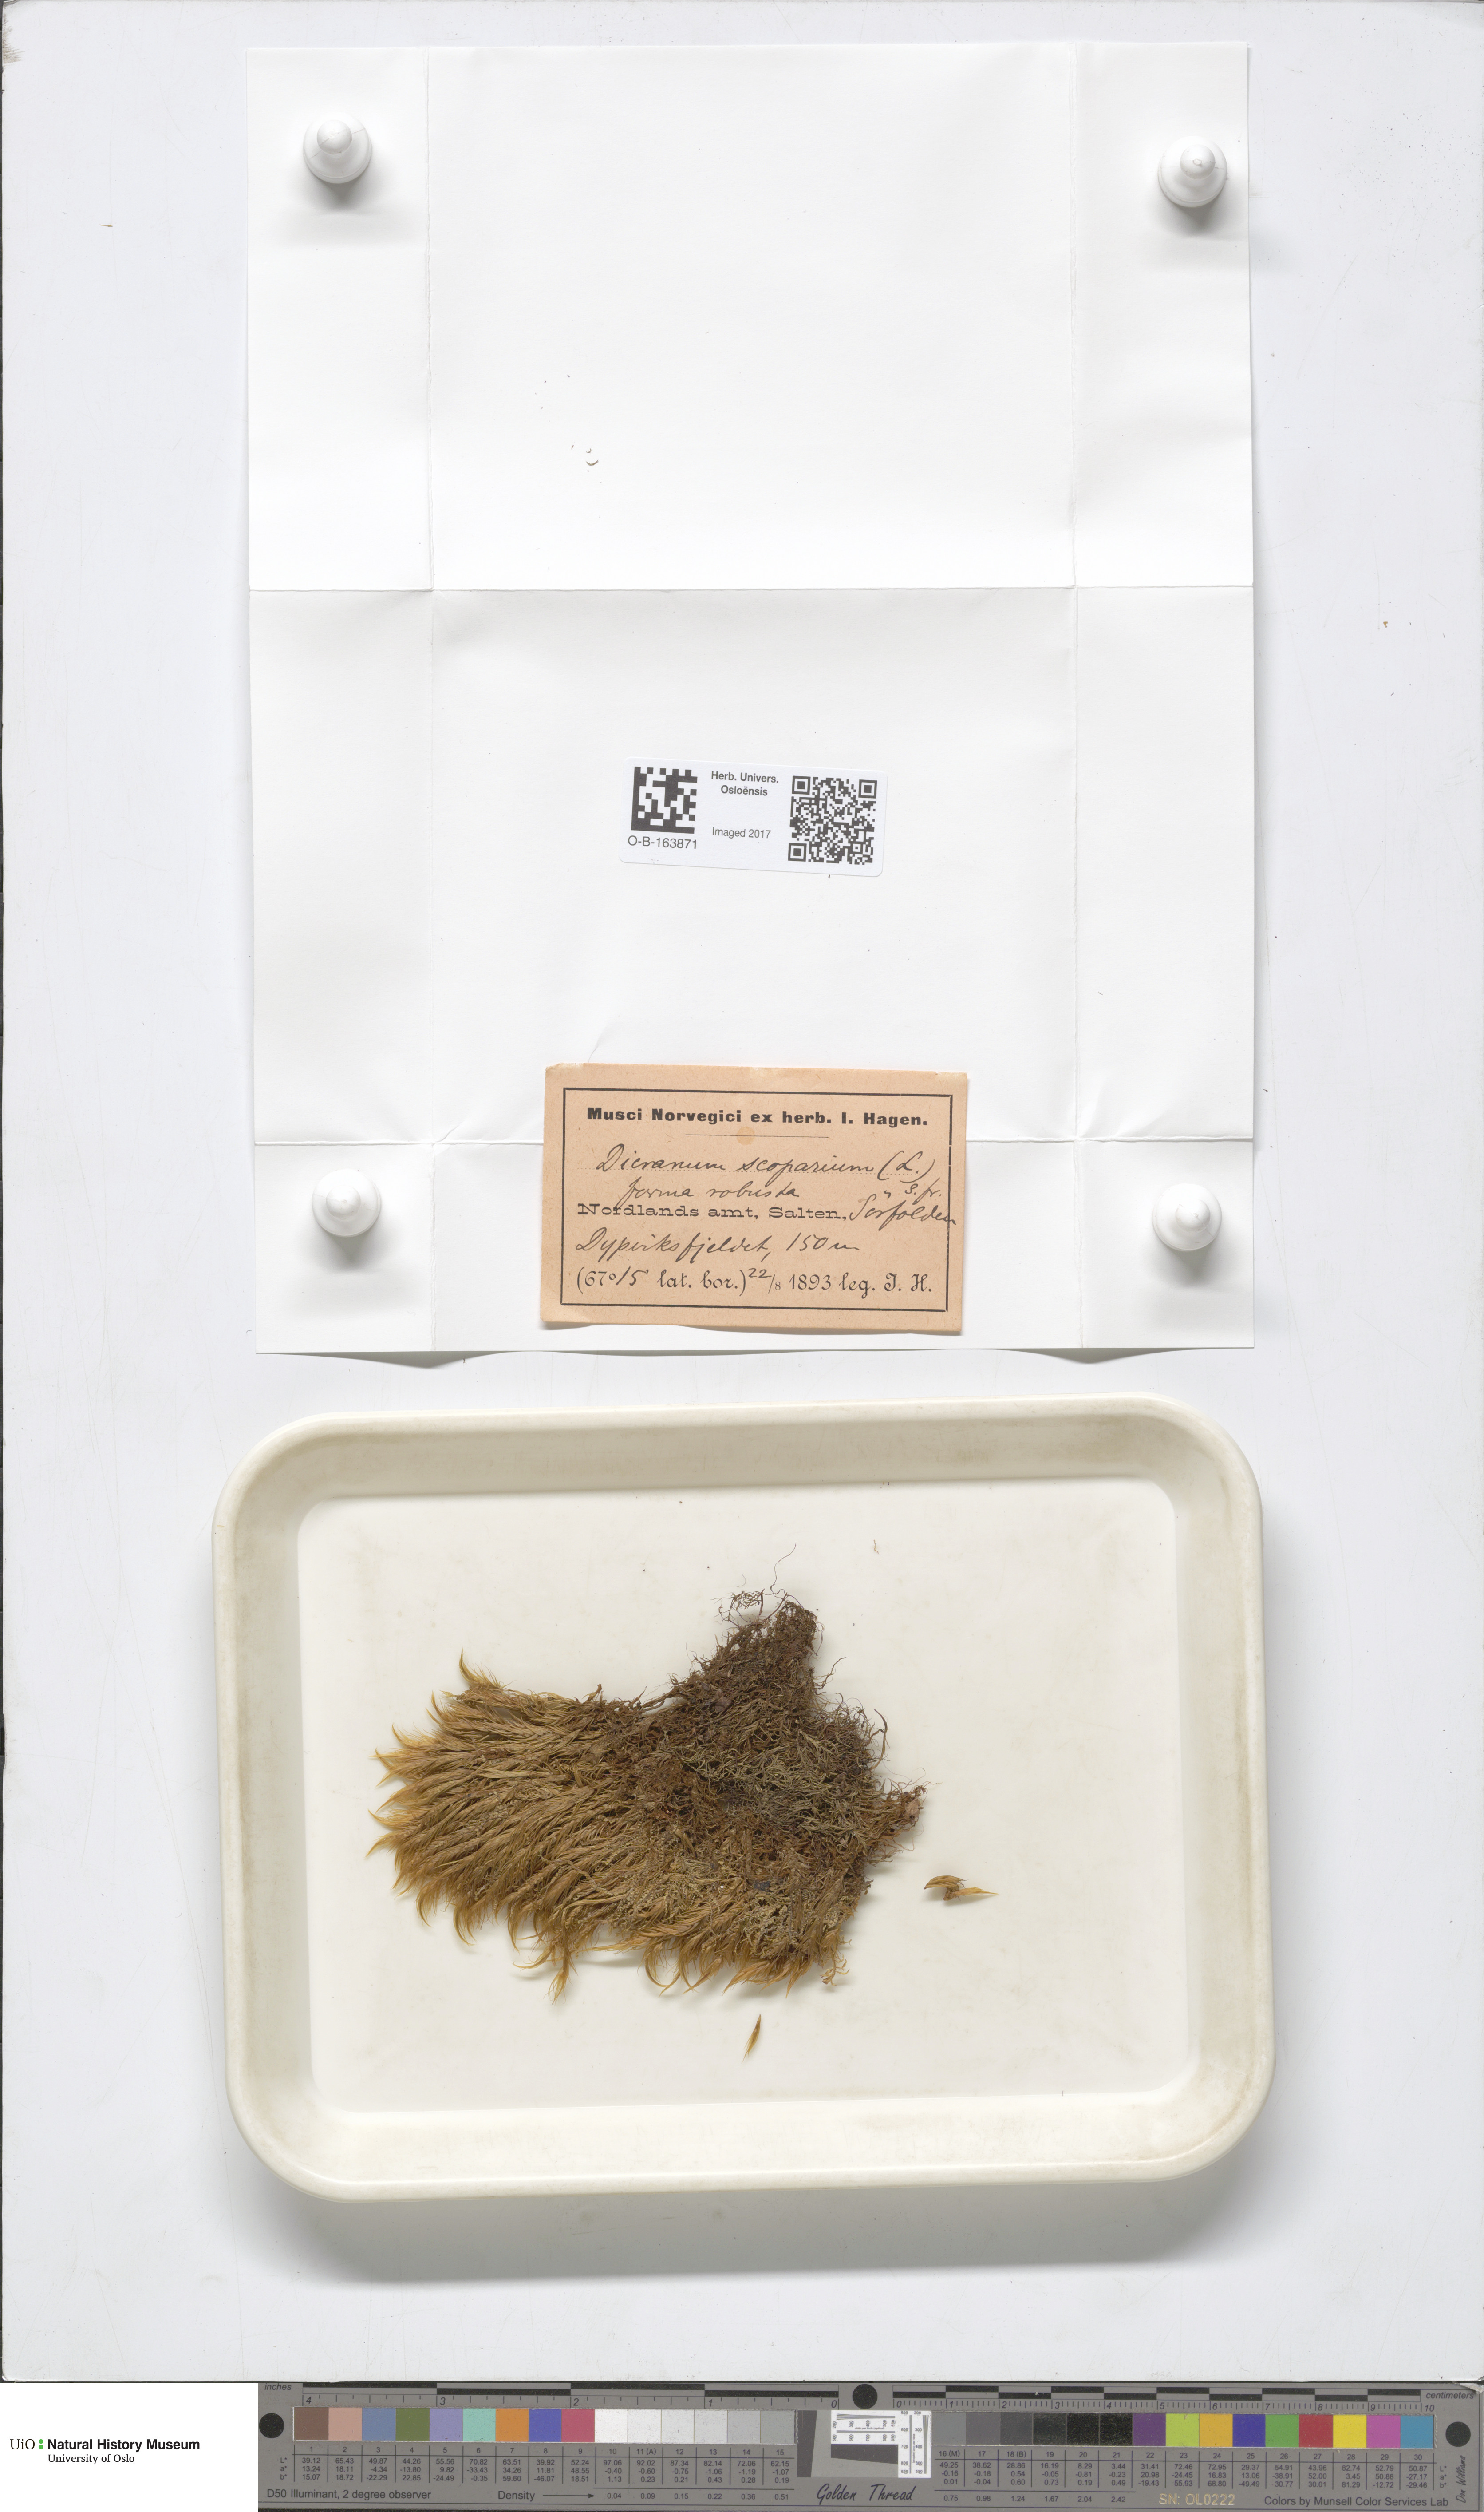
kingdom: Plantae
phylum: Bryophyta
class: Bryopsida
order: Dicranales
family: Dicranaceae
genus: Dicranum
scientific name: Dicranum scoparium
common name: Broom fork-moss
